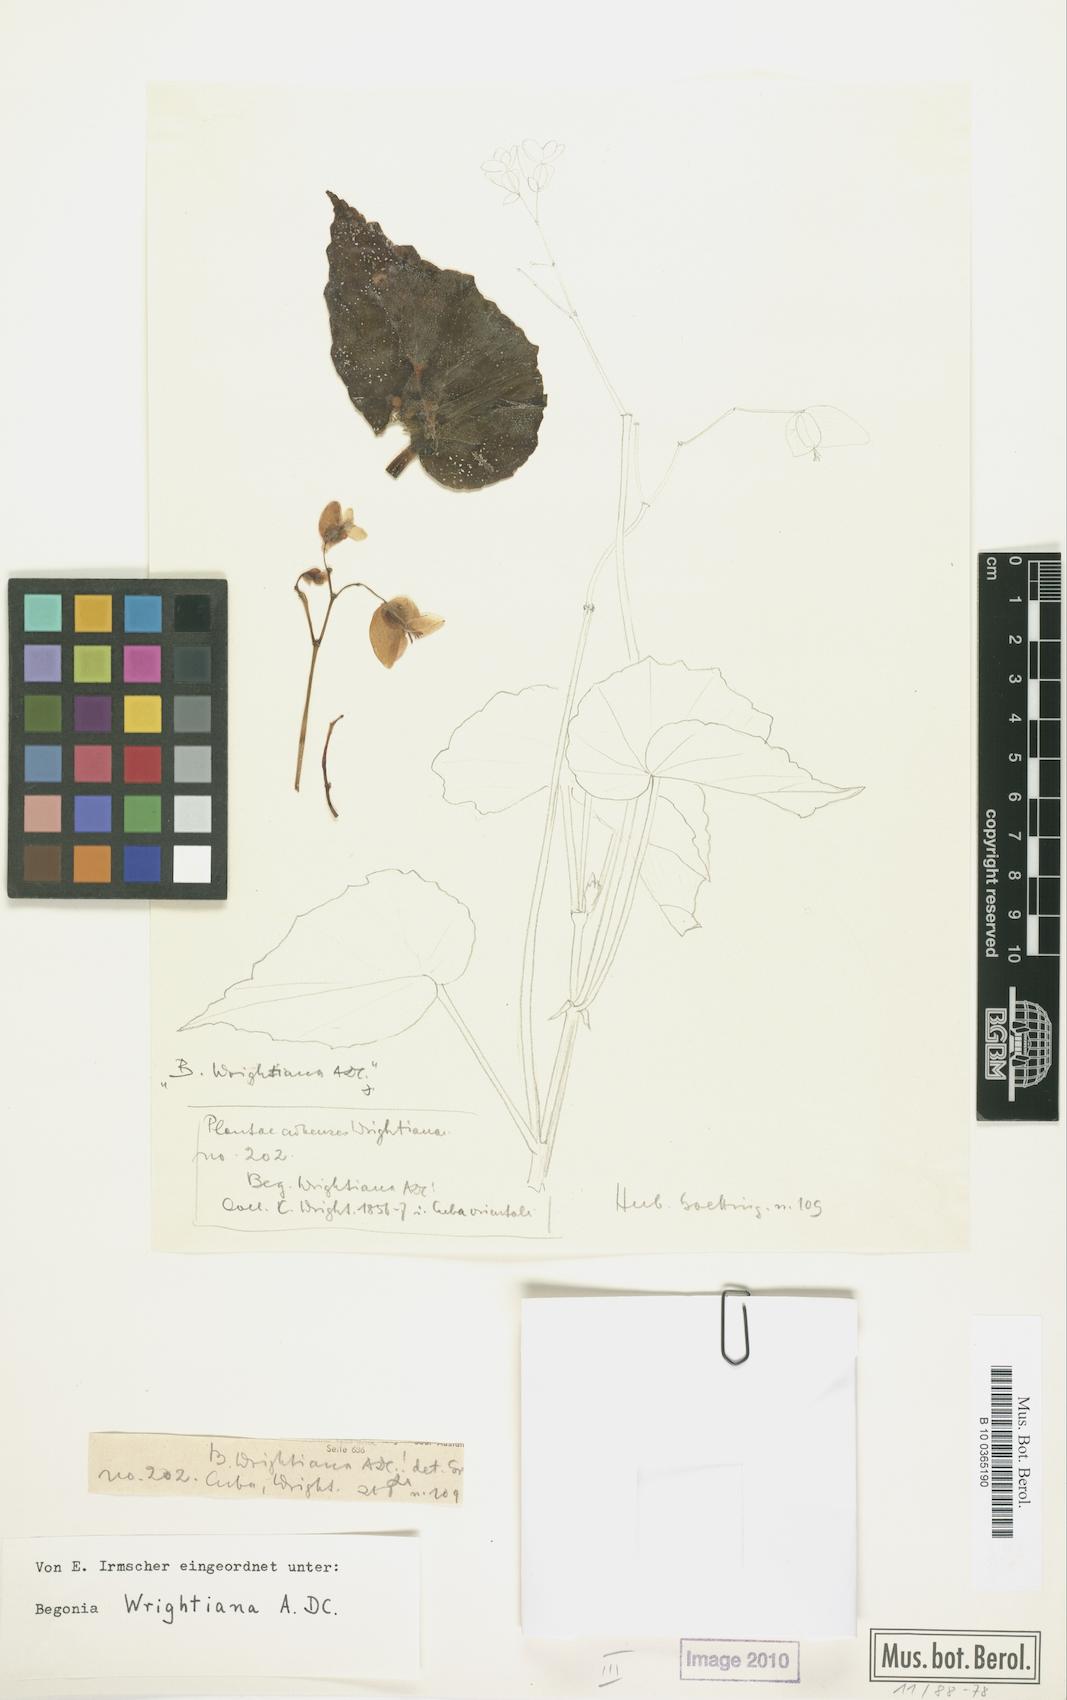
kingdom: Plantae
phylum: Tracheophyta
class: Magnoliopsida
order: Cucurbitales
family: Begoniaceae
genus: Begonia
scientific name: Begonia wrightiana
